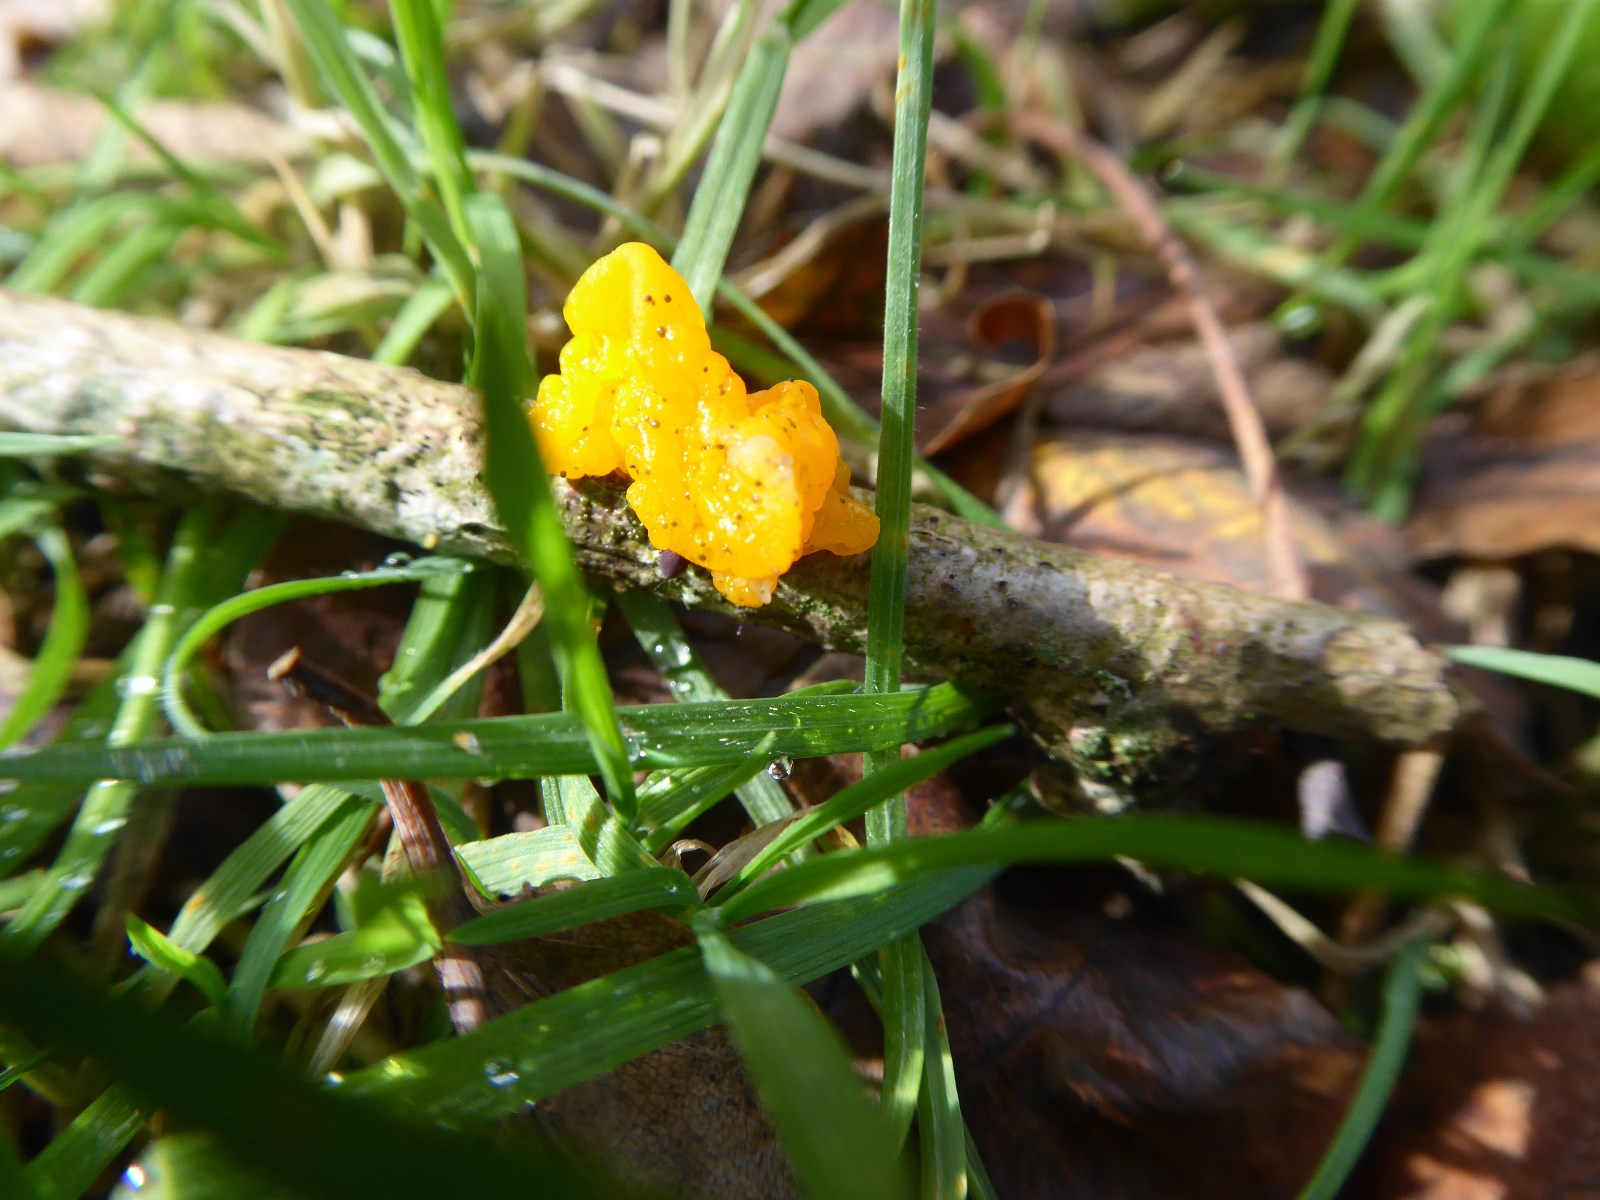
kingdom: Fungi
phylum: Basidiomycota
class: Tremellomycetes
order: Tremellales
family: Tremellaceae
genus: Tremella
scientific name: Tremella mesenterica
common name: gul bævresvamp
